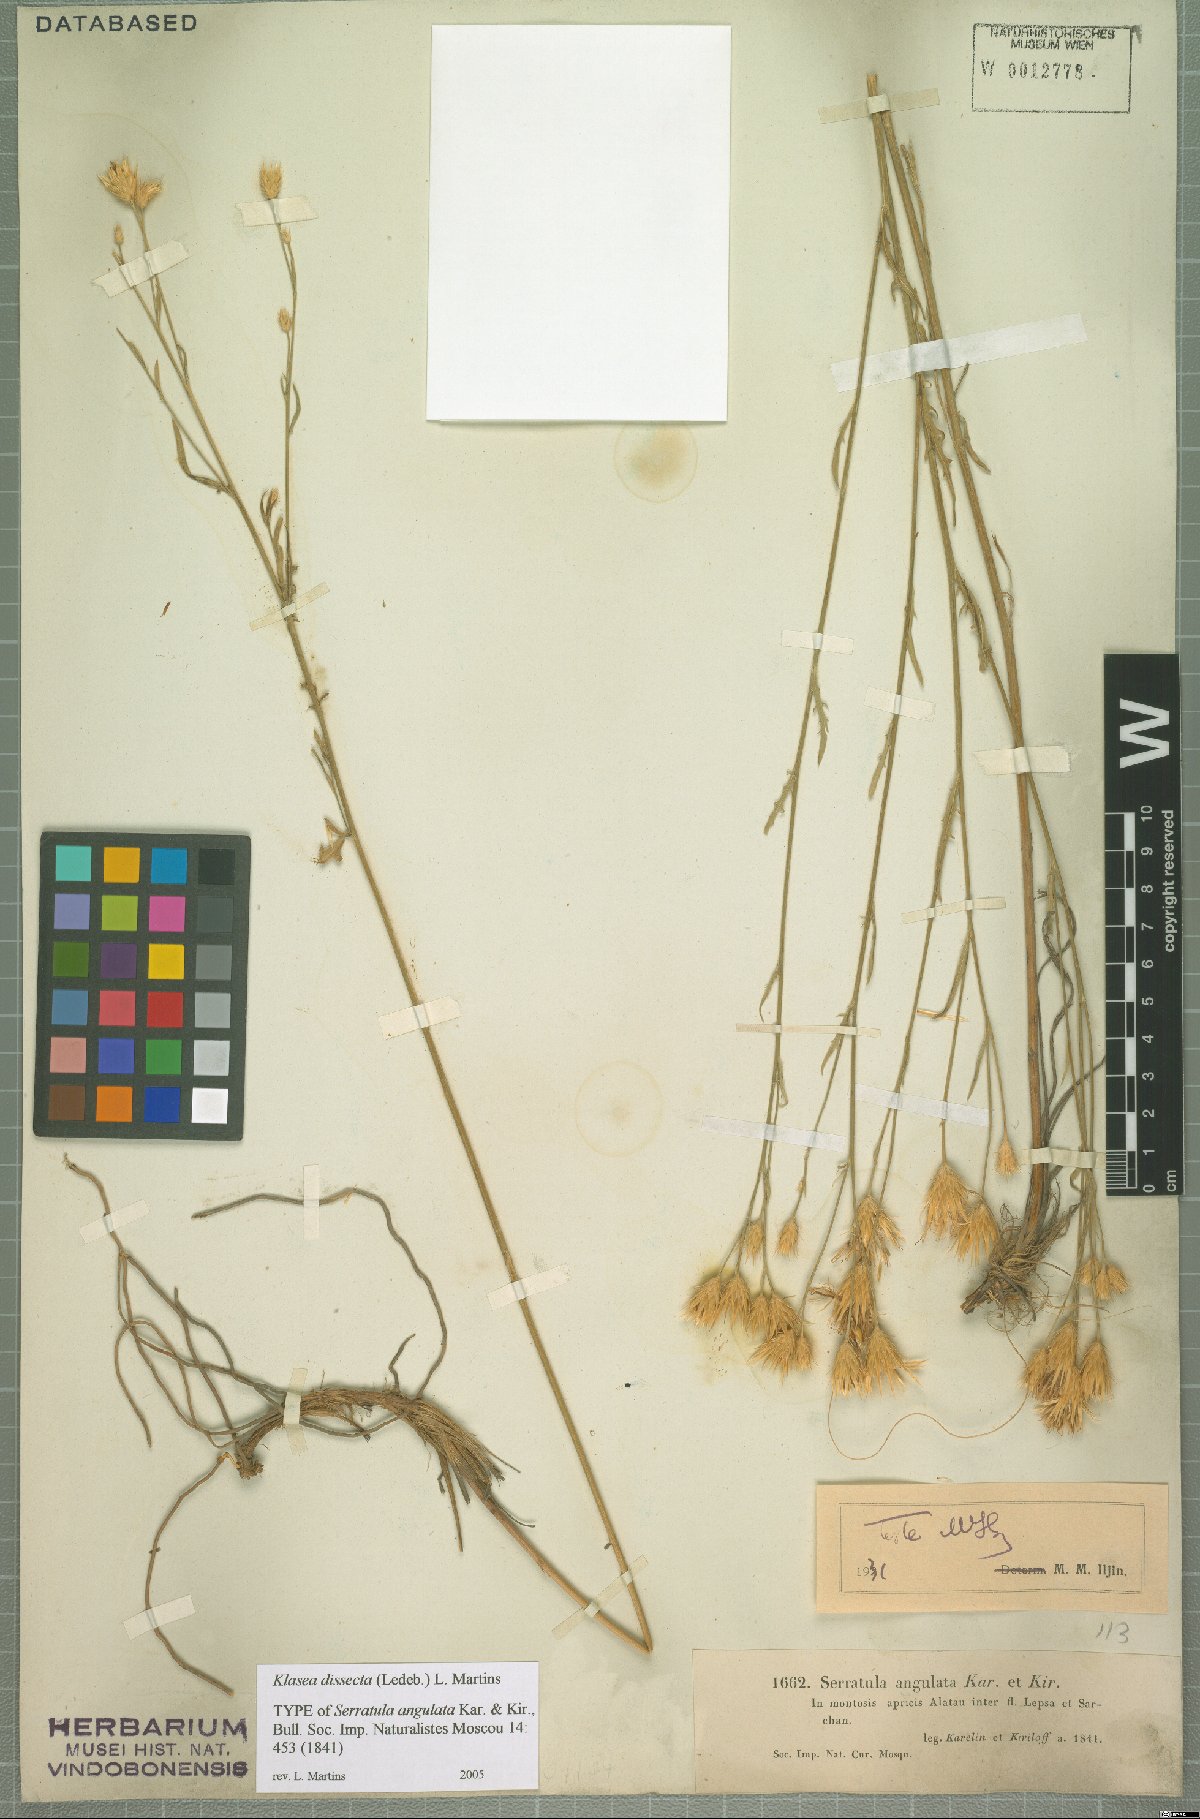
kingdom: Plantae
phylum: Tracheophyta
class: Magnoliopsida
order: Asterales
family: Asteraceae
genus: Klasea
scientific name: Klasea dissecta
